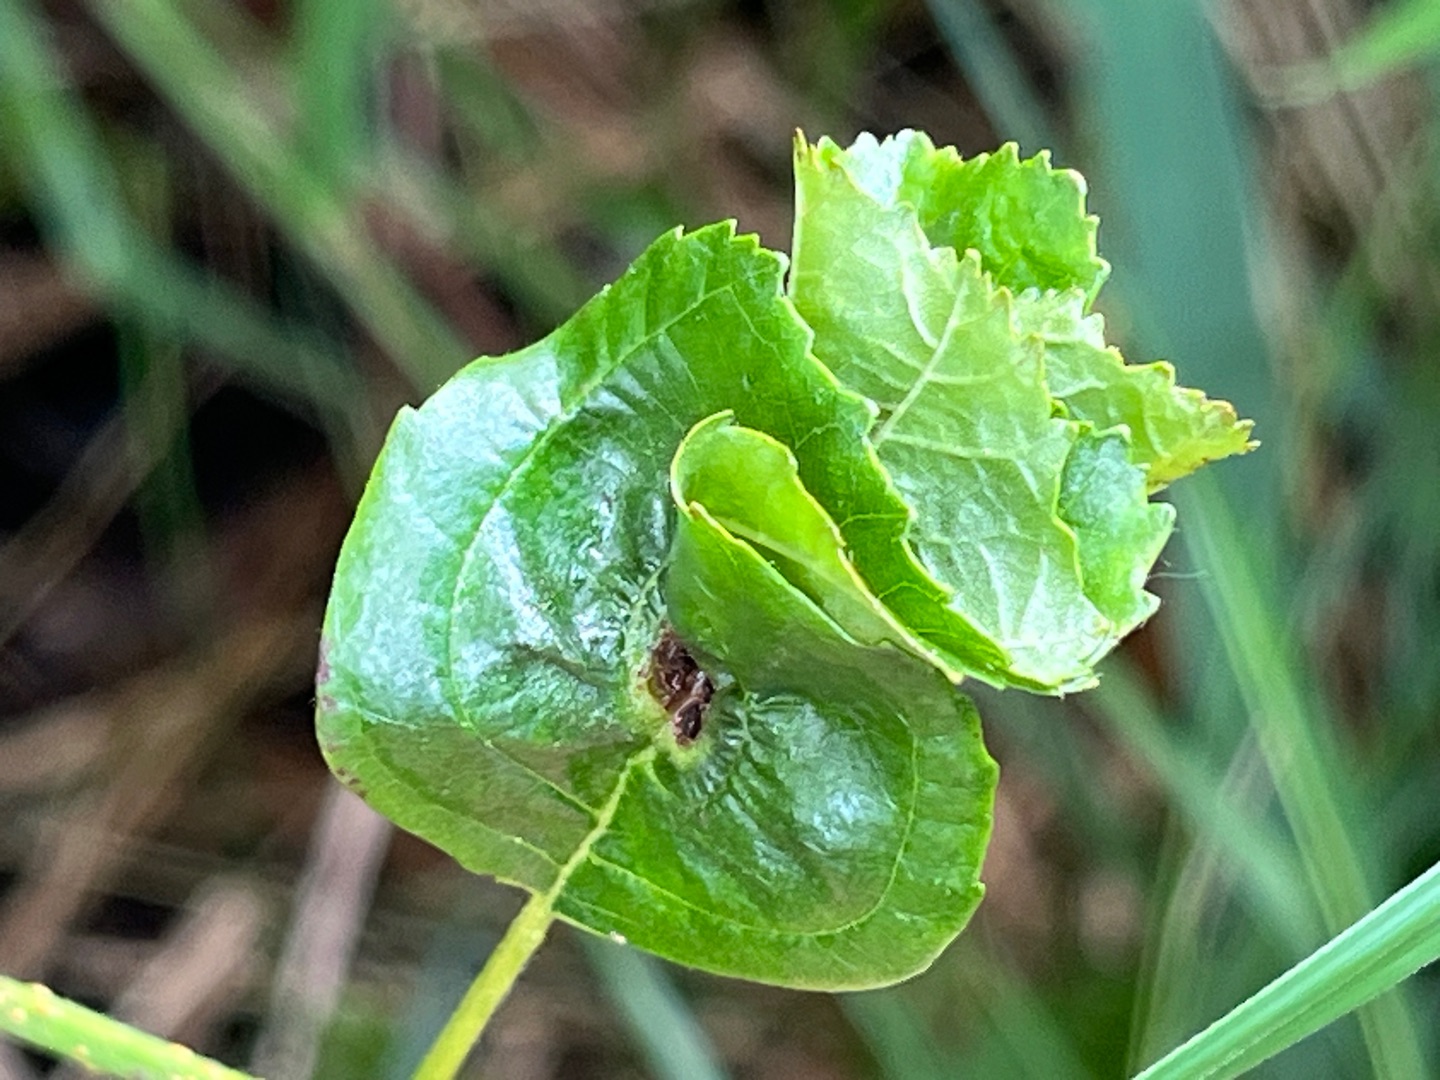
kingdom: Animalia
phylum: Arthropoda
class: Insecta
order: Diptera
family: Cecidomyiidae
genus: Dasineura
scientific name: Dasineura tortilis
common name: Ellebladgalmyg
